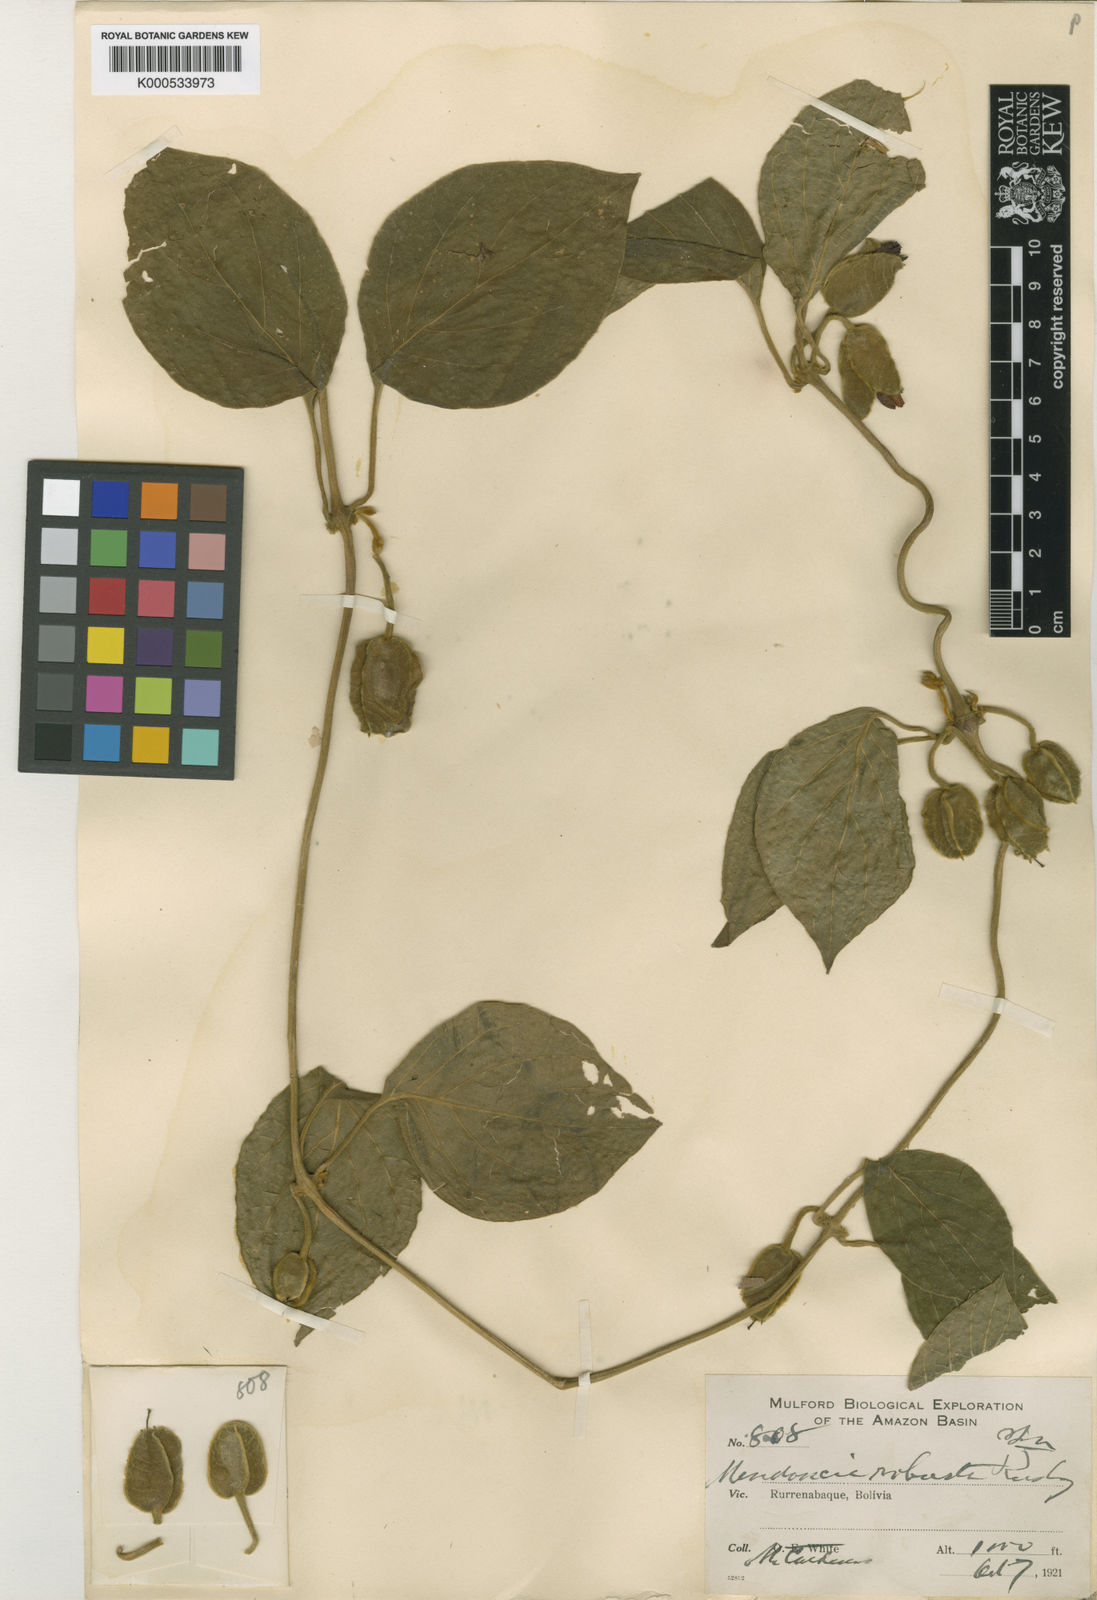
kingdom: Plantae
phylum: Tracheophyta
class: Magnoliopsida
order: Lamiales
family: Acanthaceae
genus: Mendoncia
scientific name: Mendoncia robusta
